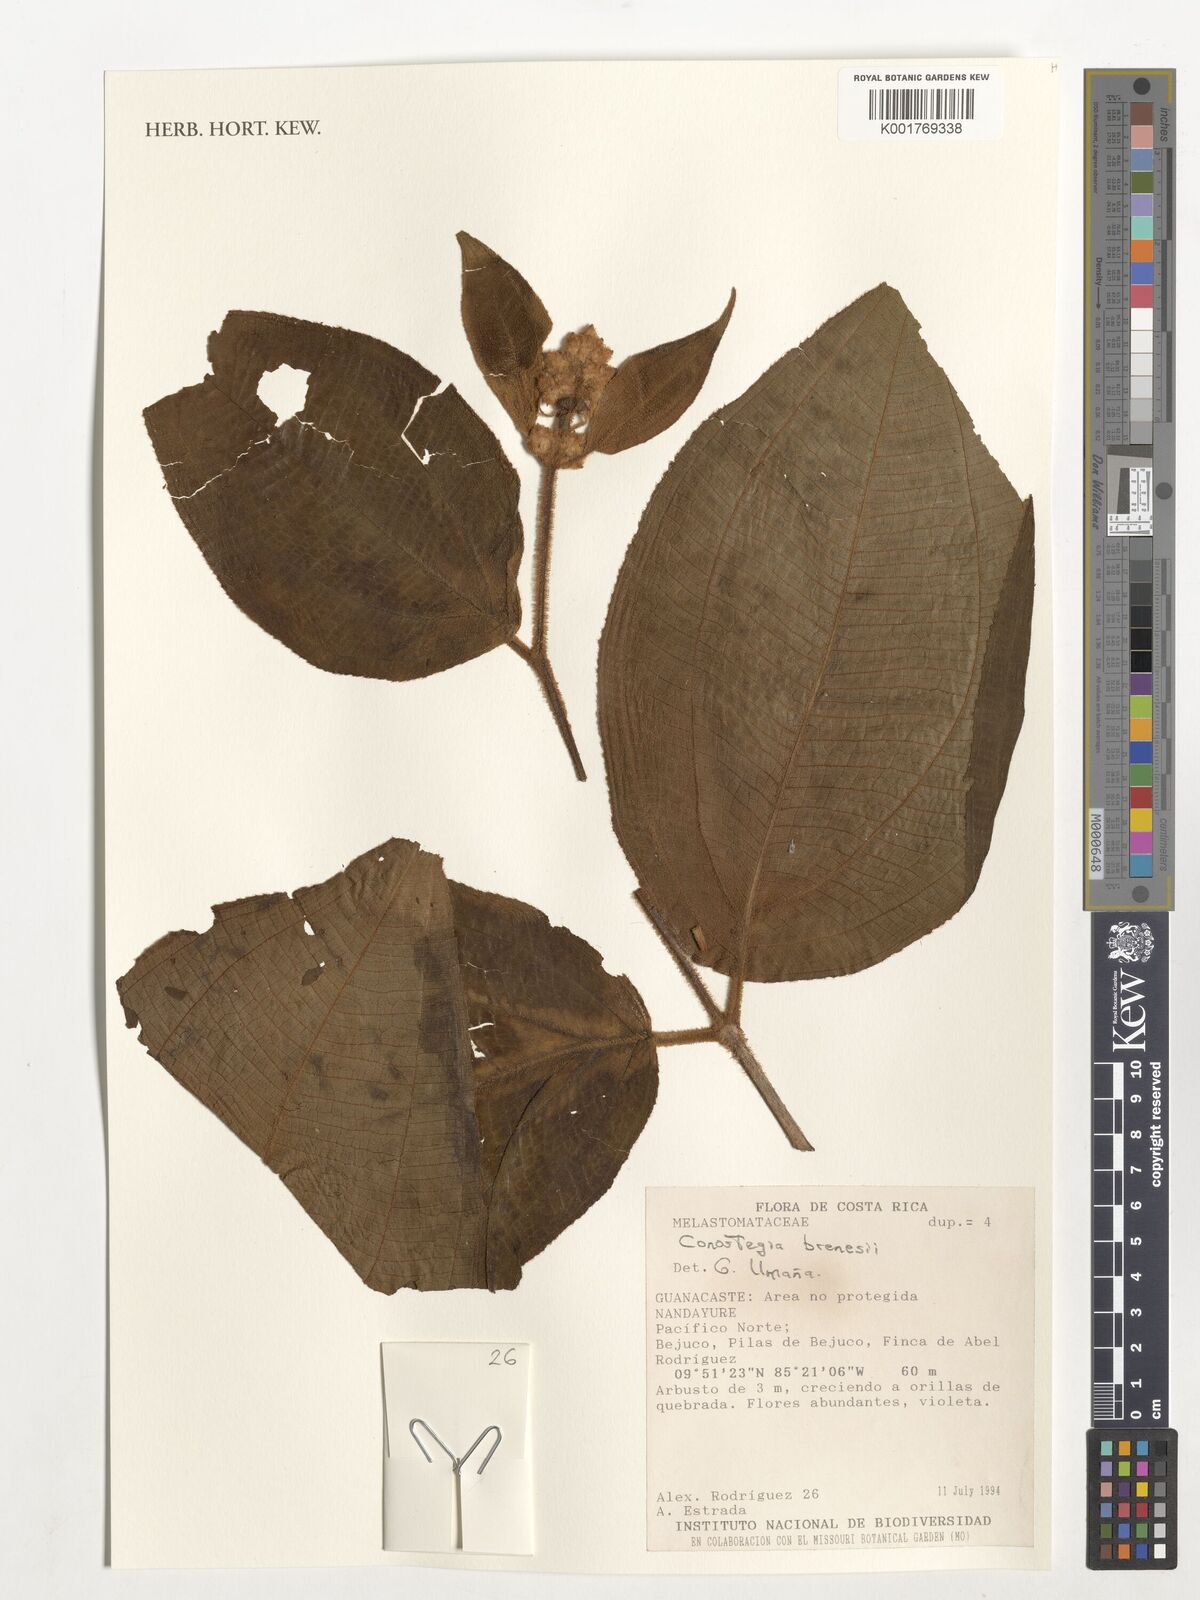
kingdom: Plantae
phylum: Tracheophyta
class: Magnoliopsida
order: Myrtales
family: Melastomataceae
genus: Miconia
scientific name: Miconia conobrenesii
